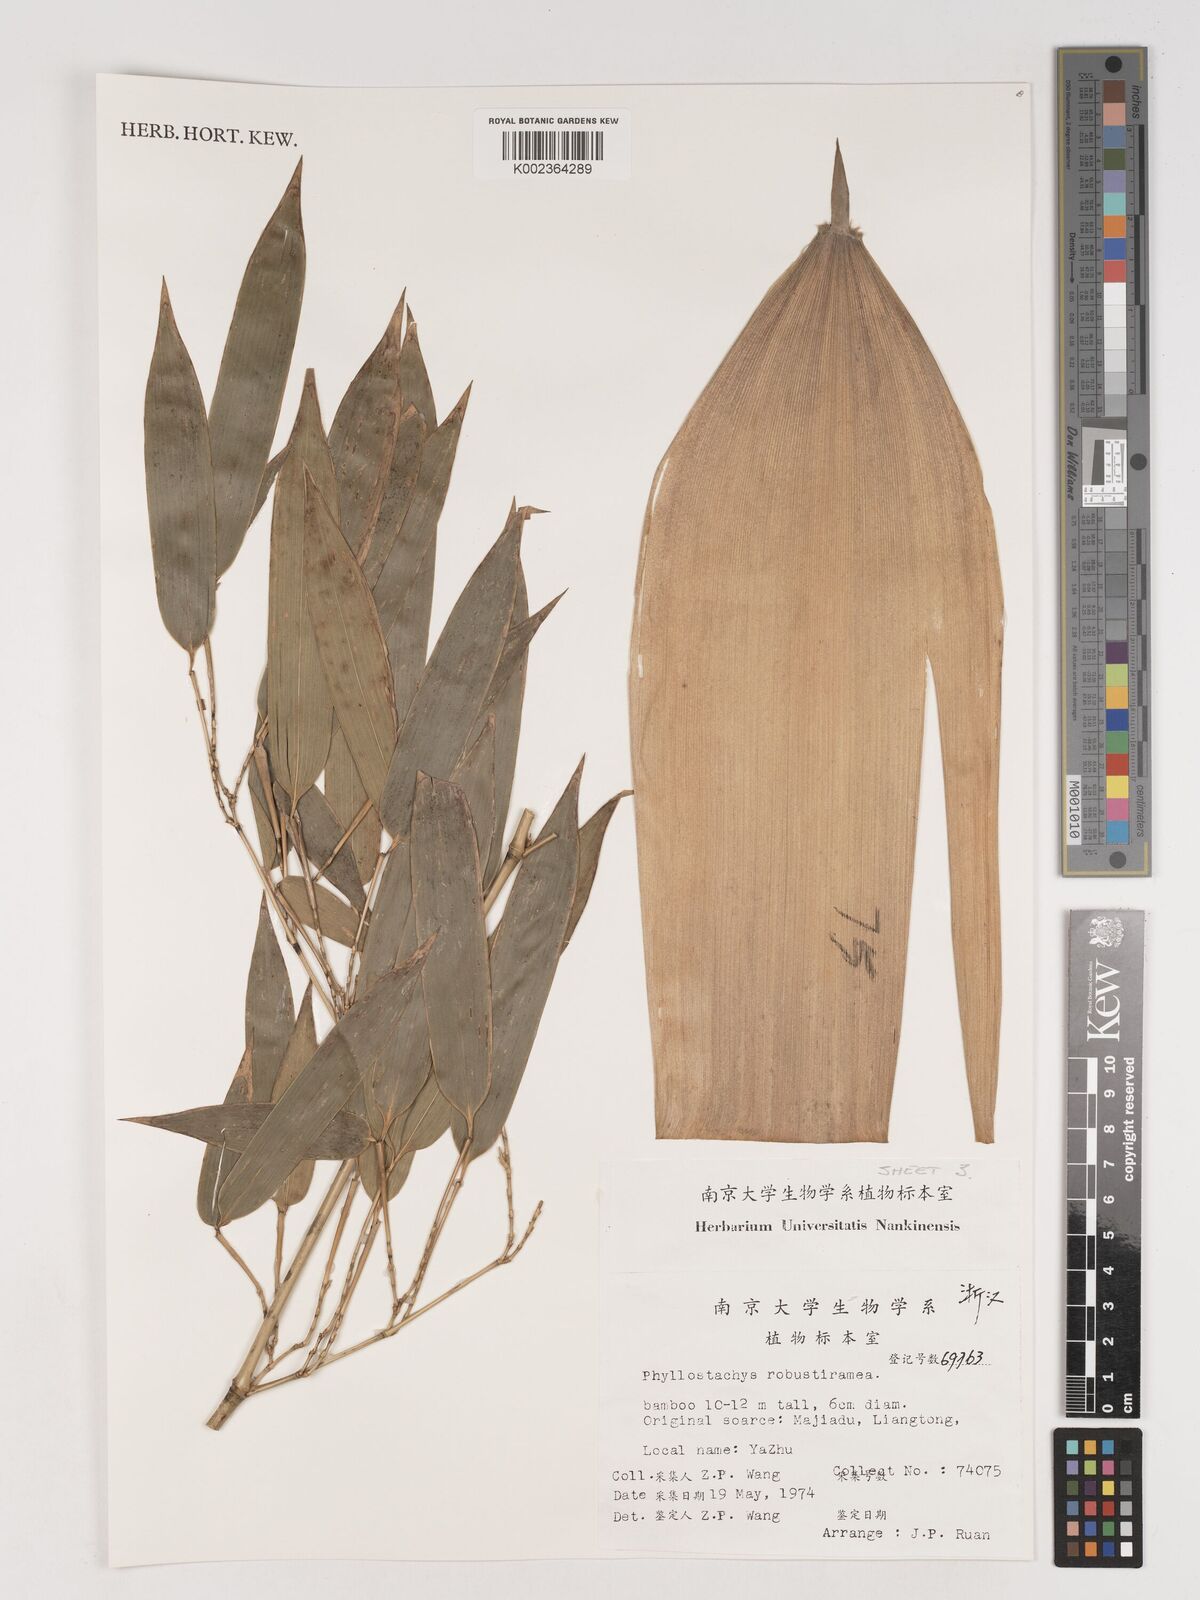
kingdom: Plantae
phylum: Tracheophyta
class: Liliopsida
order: Poales
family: Poaceae
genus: Phyllostachys
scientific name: Phyllostachys robustiramea
